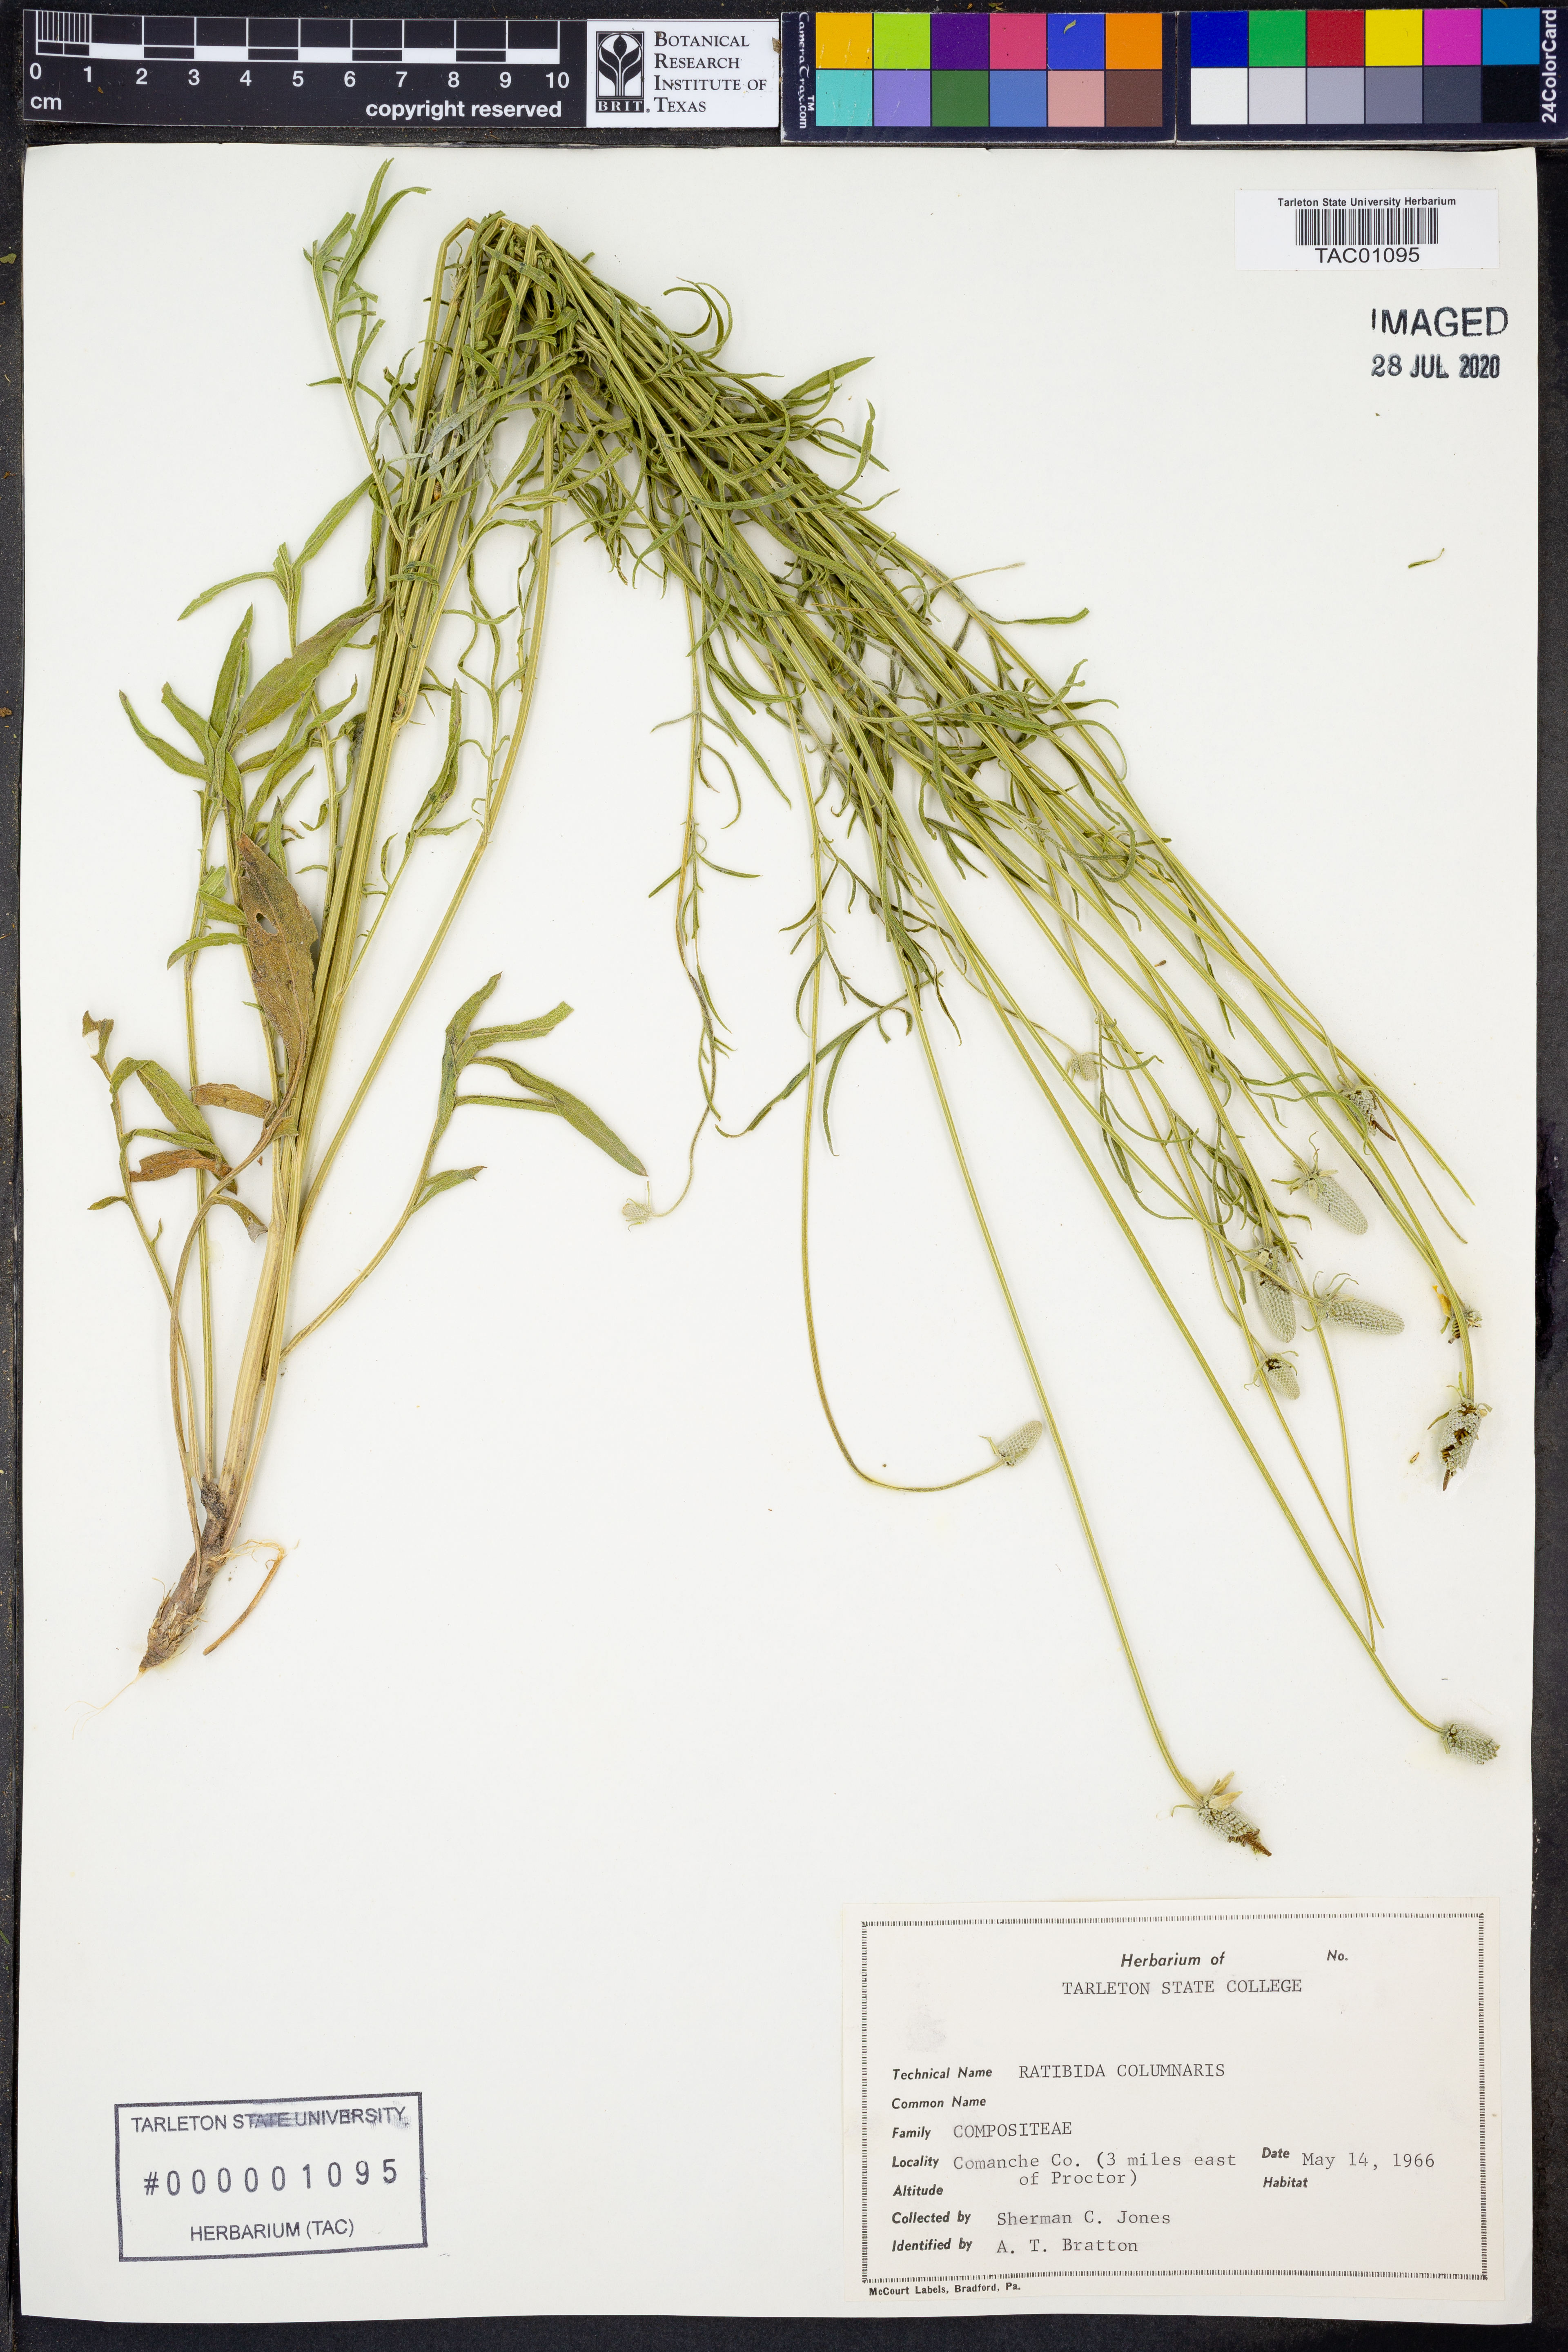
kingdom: Plantae
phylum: Tracheophyta
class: Magnoliopsida
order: Asterales
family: Asteraceae
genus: Ratibida
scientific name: Ratibida columnifera
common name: Prairie coneflower
